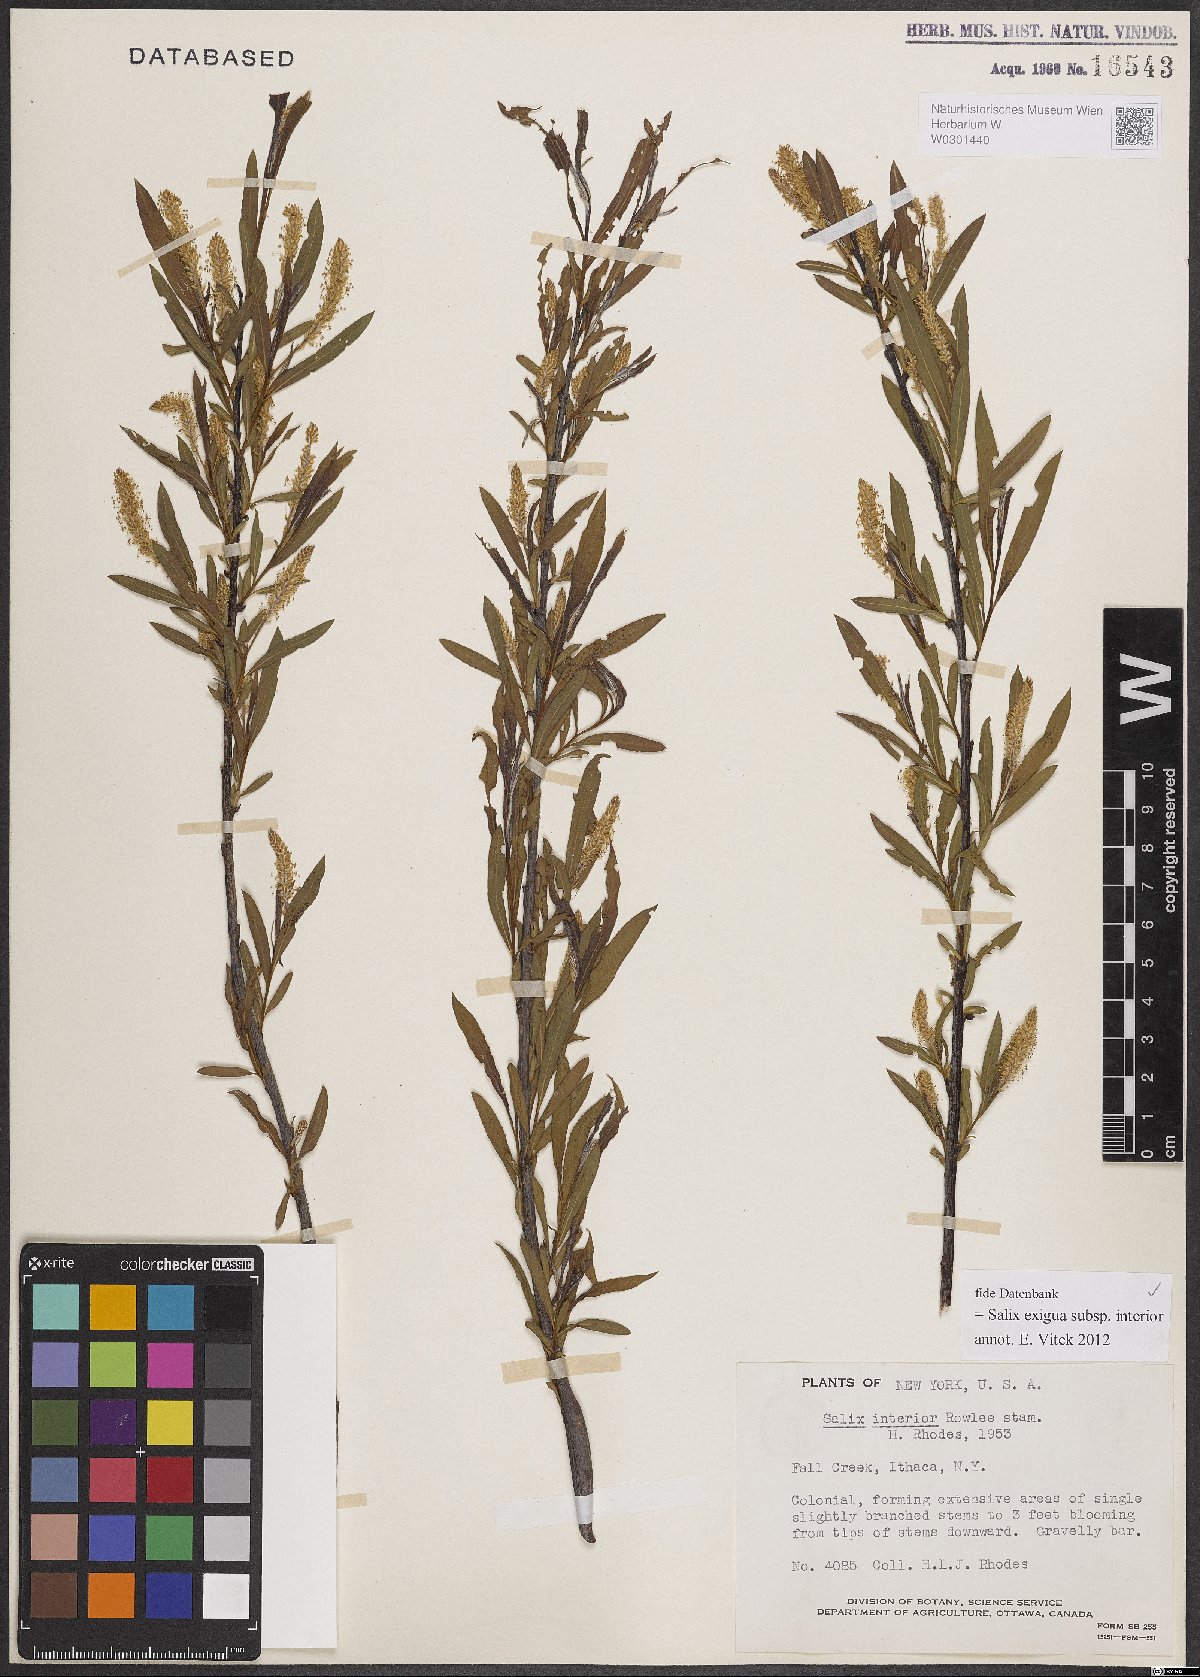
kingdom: Plantae
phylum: Tracheophyta
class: Magnoliopsida
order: Malpighiales
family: Salicaceae
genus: Salix
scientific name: Salix interior
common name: Sandbar willow
